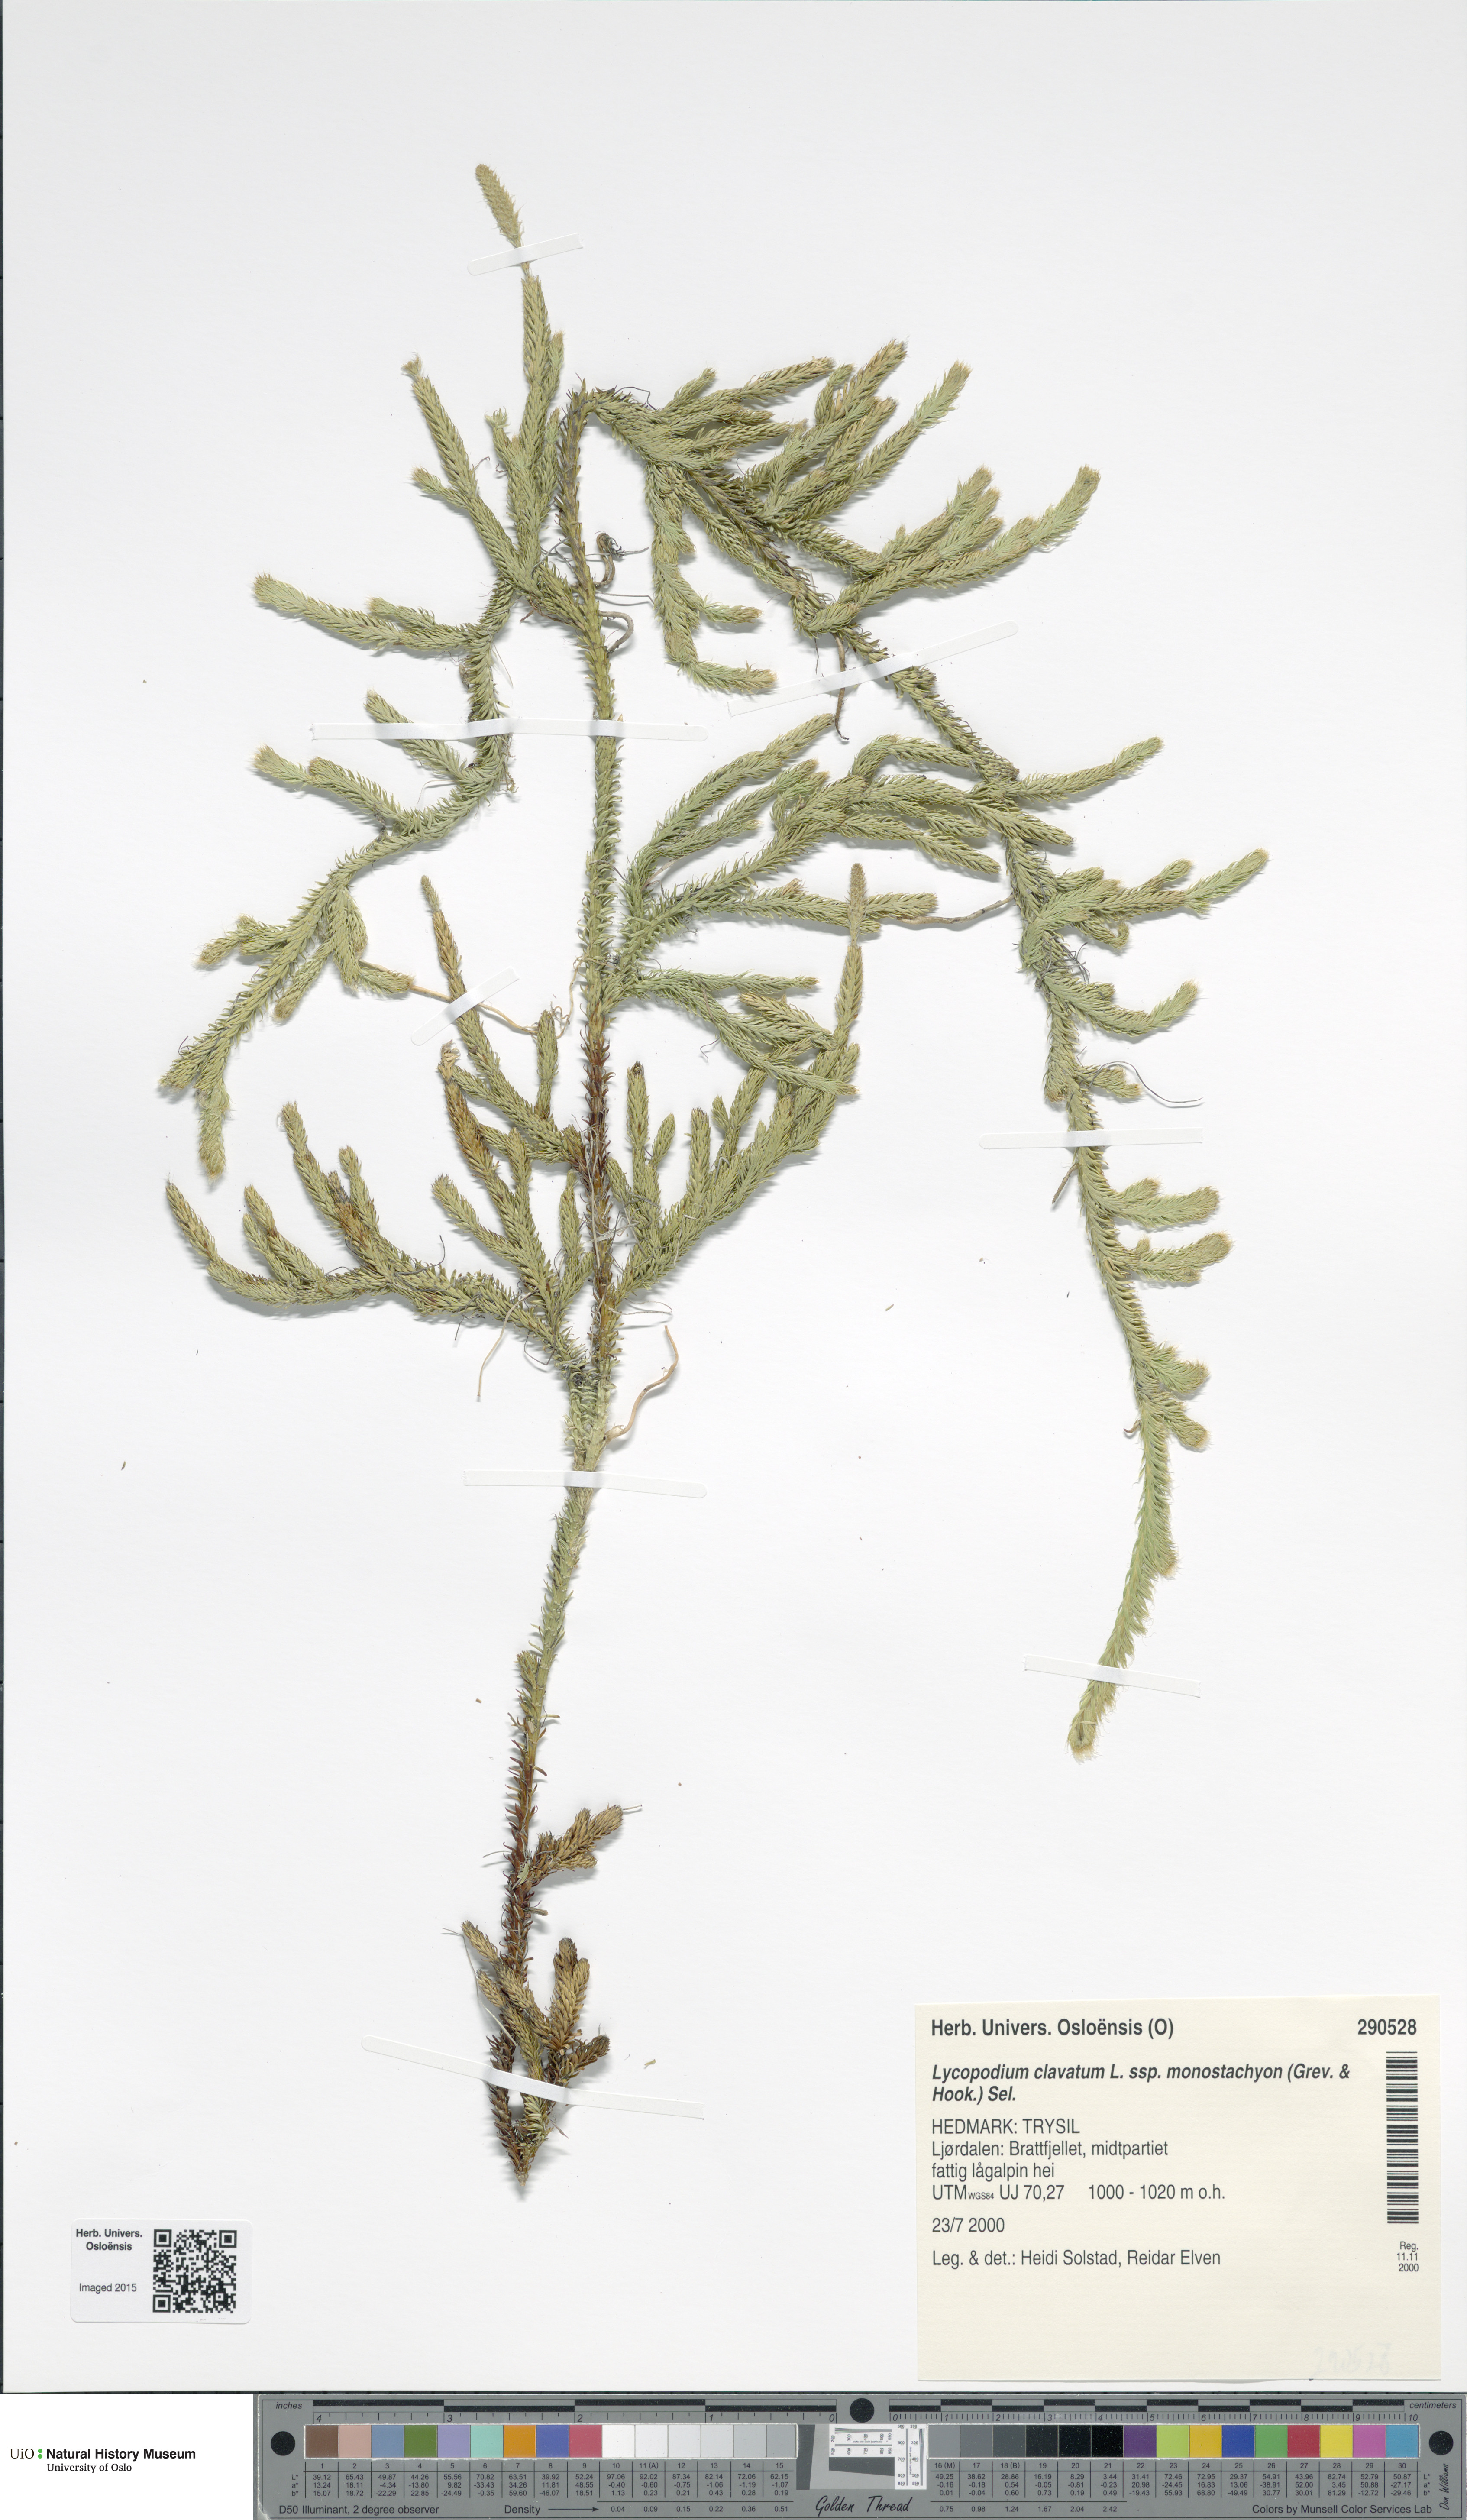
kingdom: Plantae
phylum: Tracheophyta
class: Lycopodiopsida
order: Lycopodiales
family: Lycopodiaceae
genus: Lycopodium
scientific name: Lycopodium lagopus
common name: One-cone clubmoss
